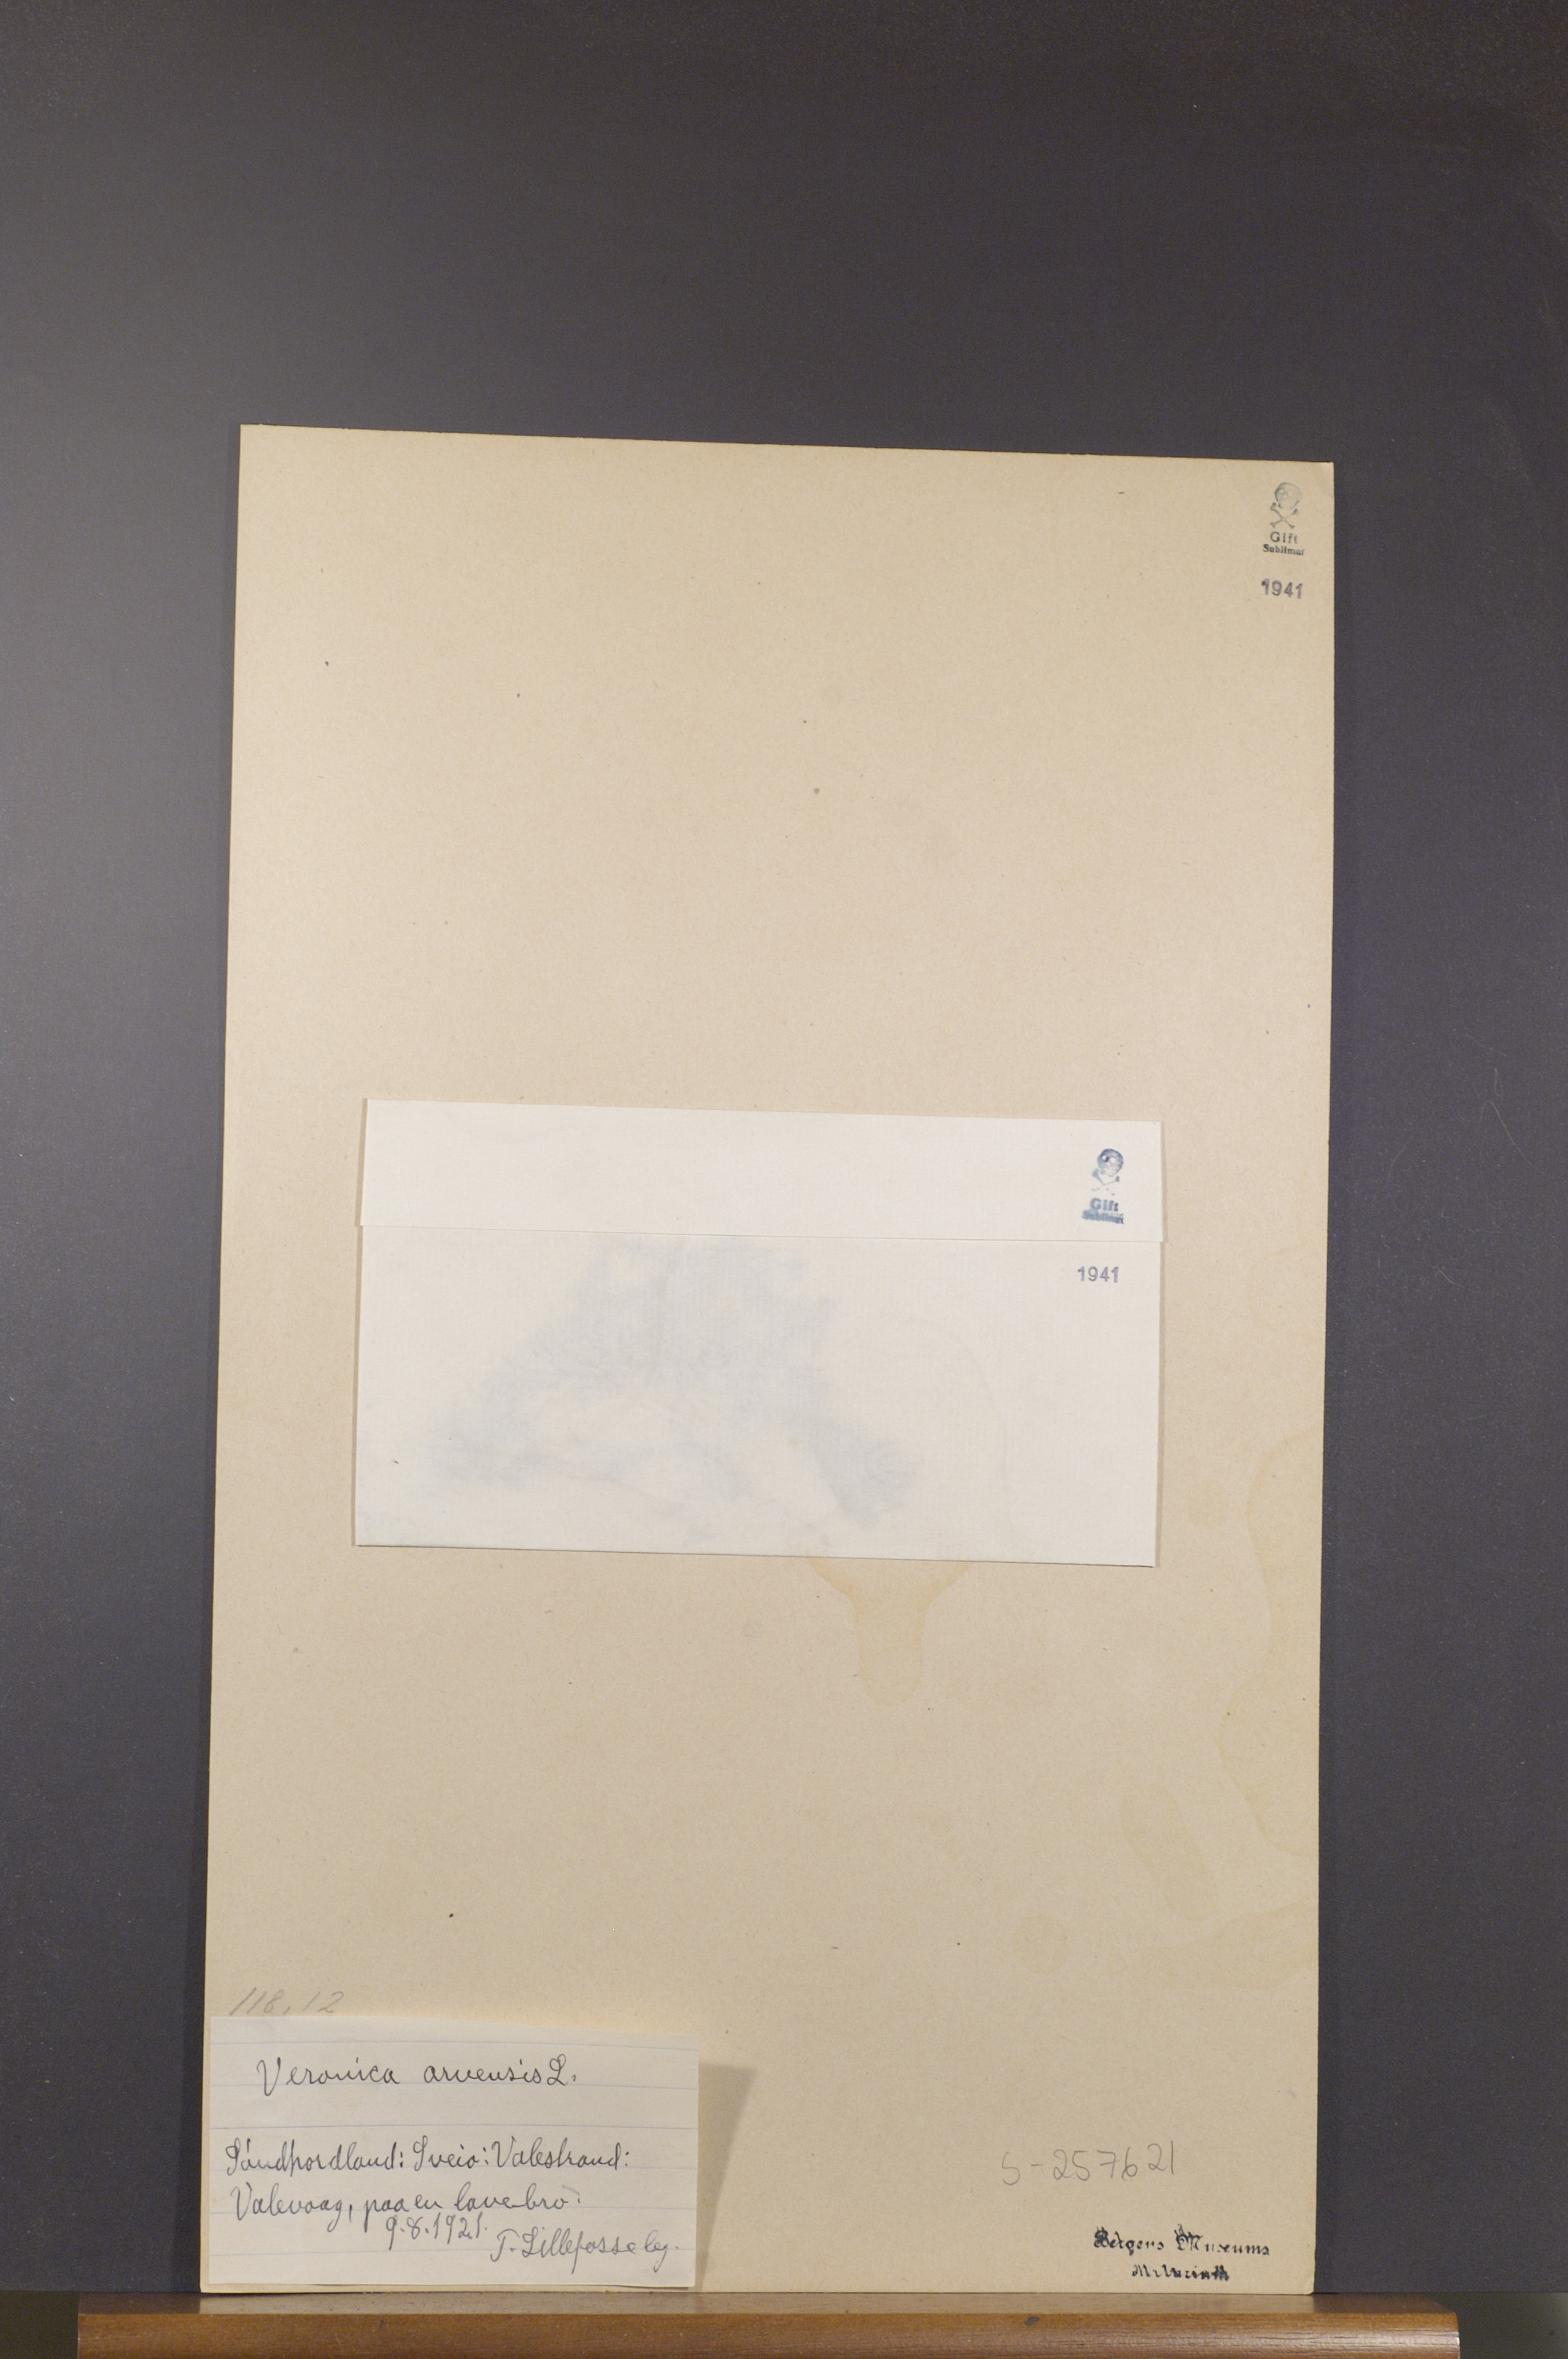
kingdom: Plantae
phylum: Tracheophyta
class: Magnoliopsida
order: Lamiales
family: Plantaginaceae
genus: Veronica
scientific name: Veronica arvensis
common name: Corn speedwell
